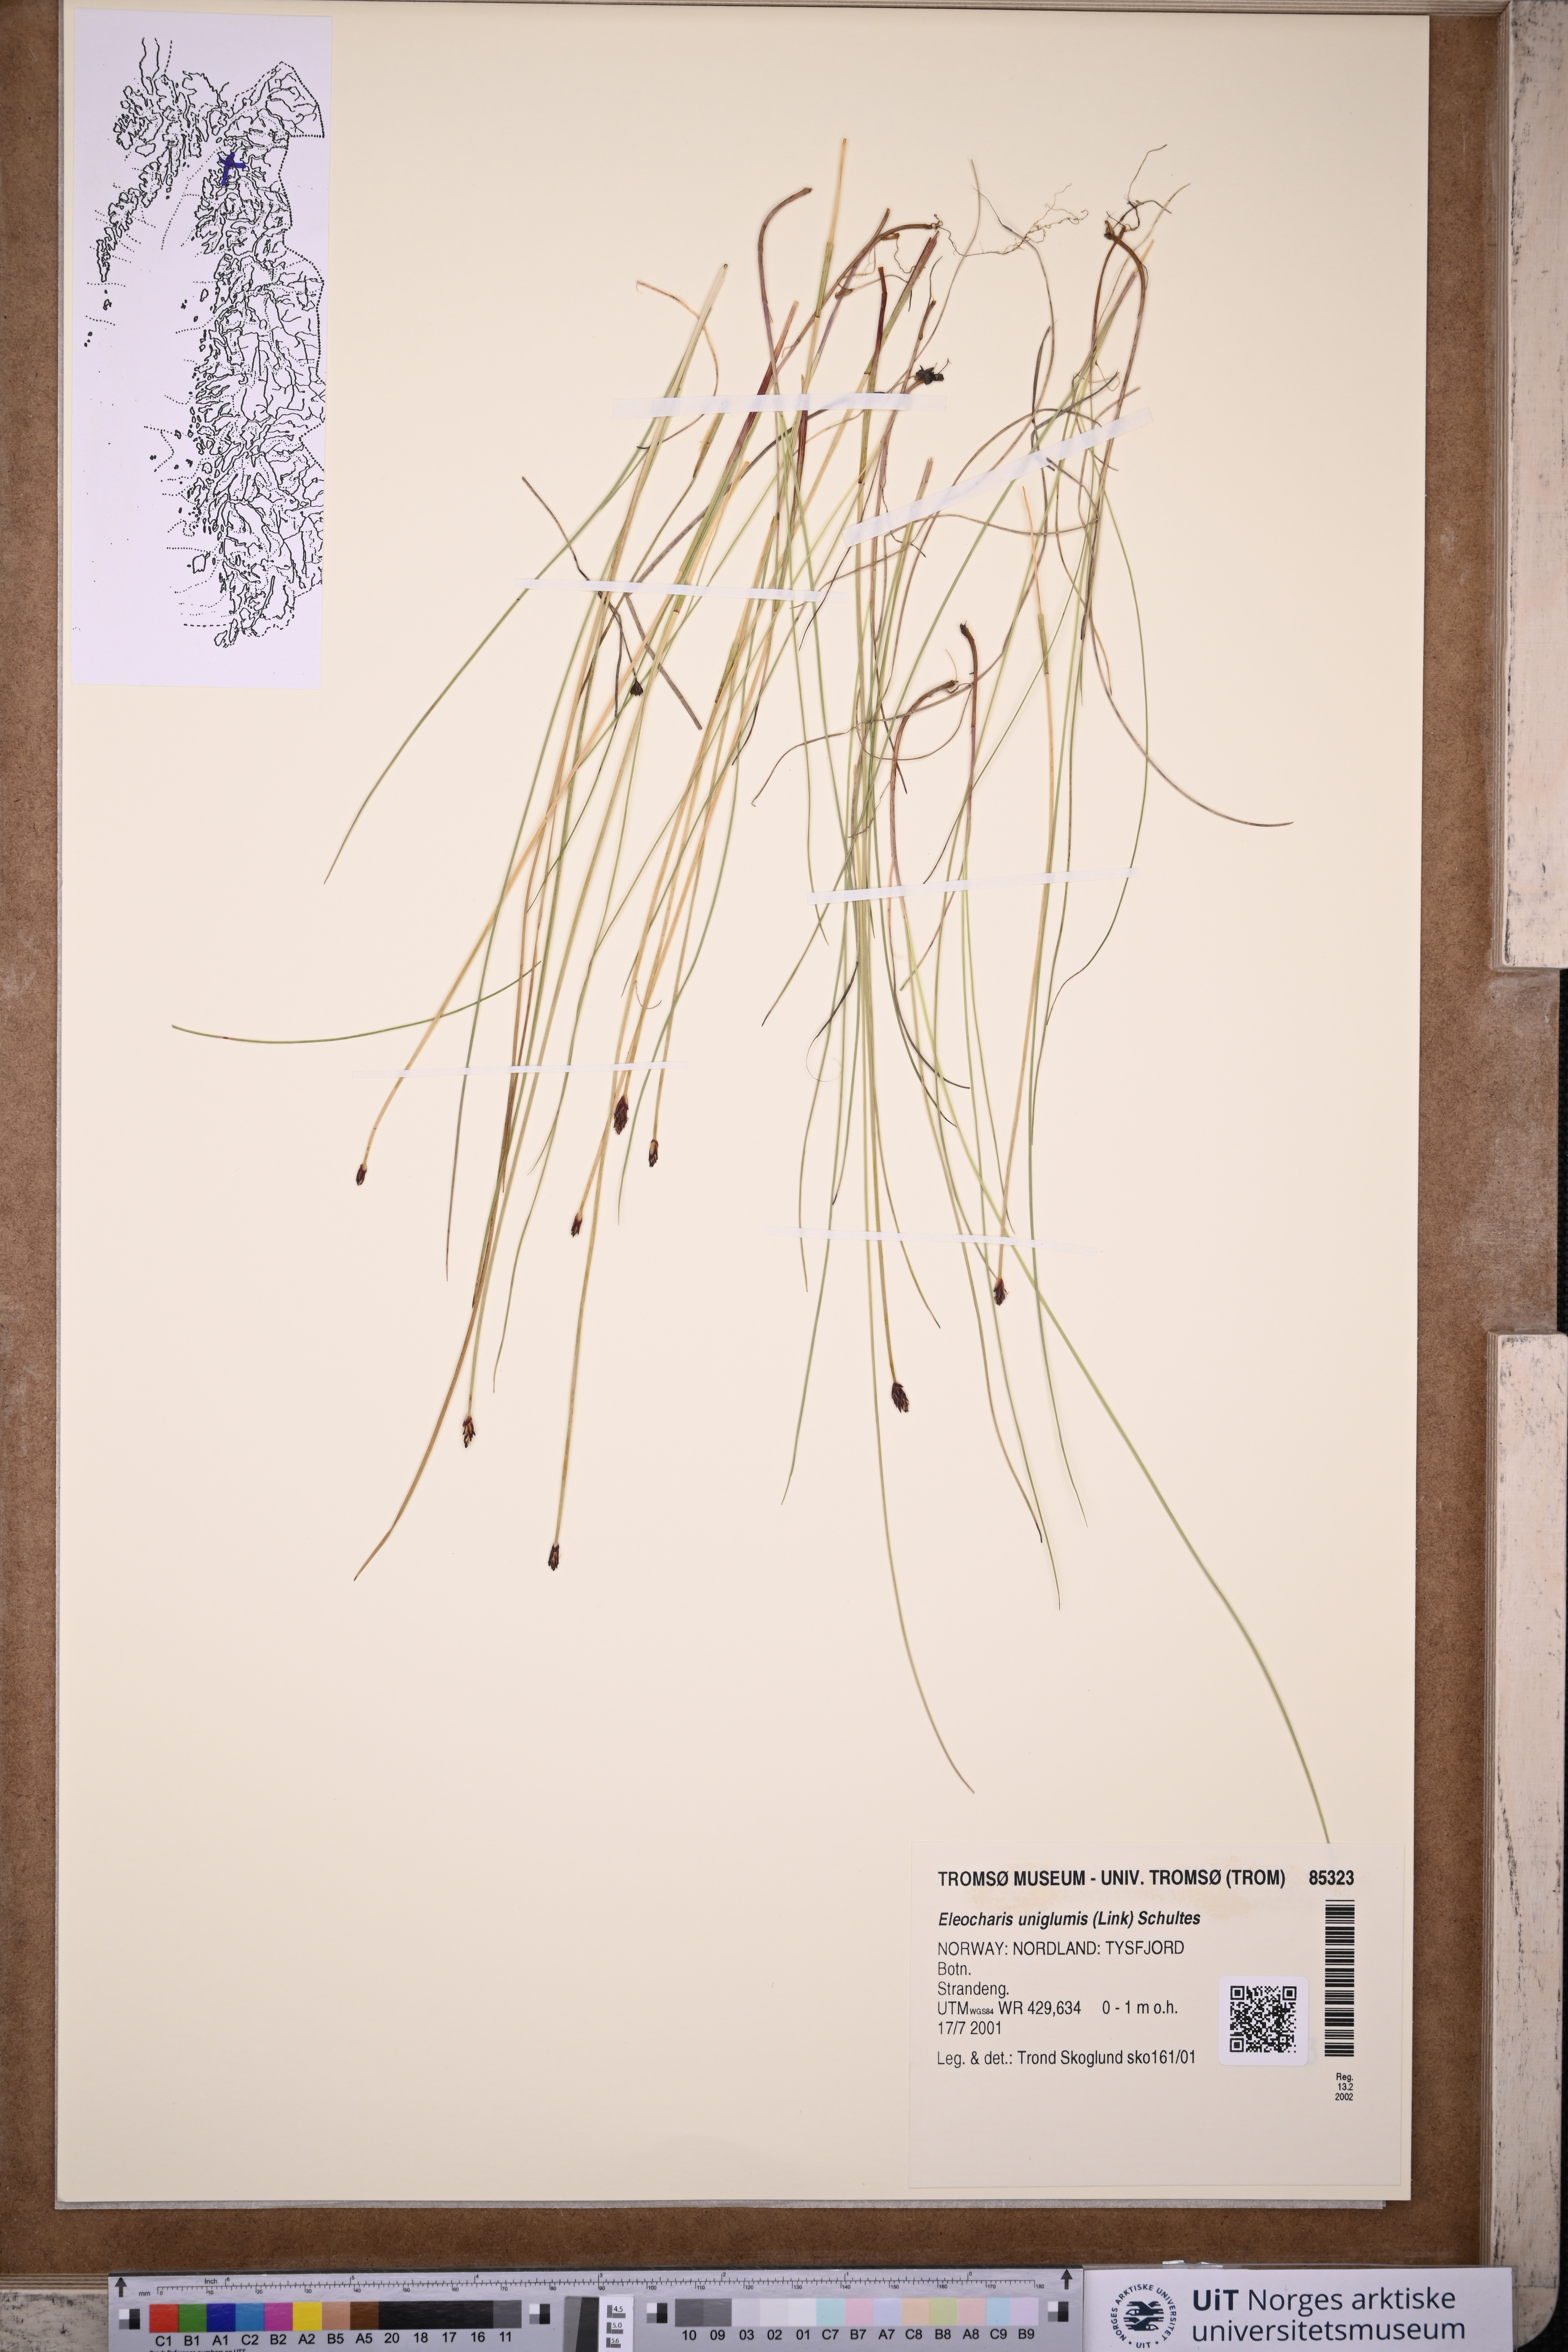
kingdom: Plantae
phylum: Tracheophyta
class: Liliopsida
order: Poales
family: Cyperaceae
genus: Eleocharis
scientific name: Eleocharis uniglumis
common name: Slender spike-rush
